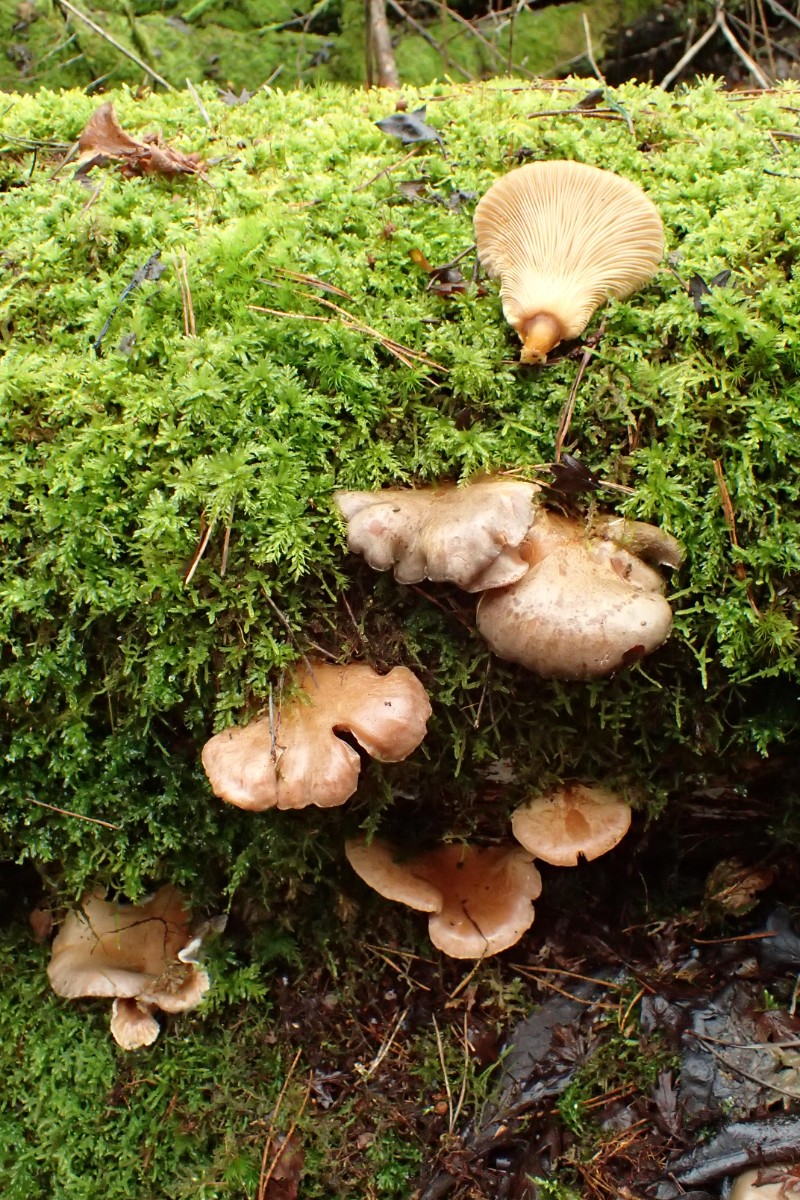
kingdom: Fungi
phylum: Basidiomycota
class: Agaricomycetes
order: Agaricales
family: Sarcomyxaceae
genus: Sarcomyxa
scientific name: Sarcomyxa serotina
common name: gummihat
